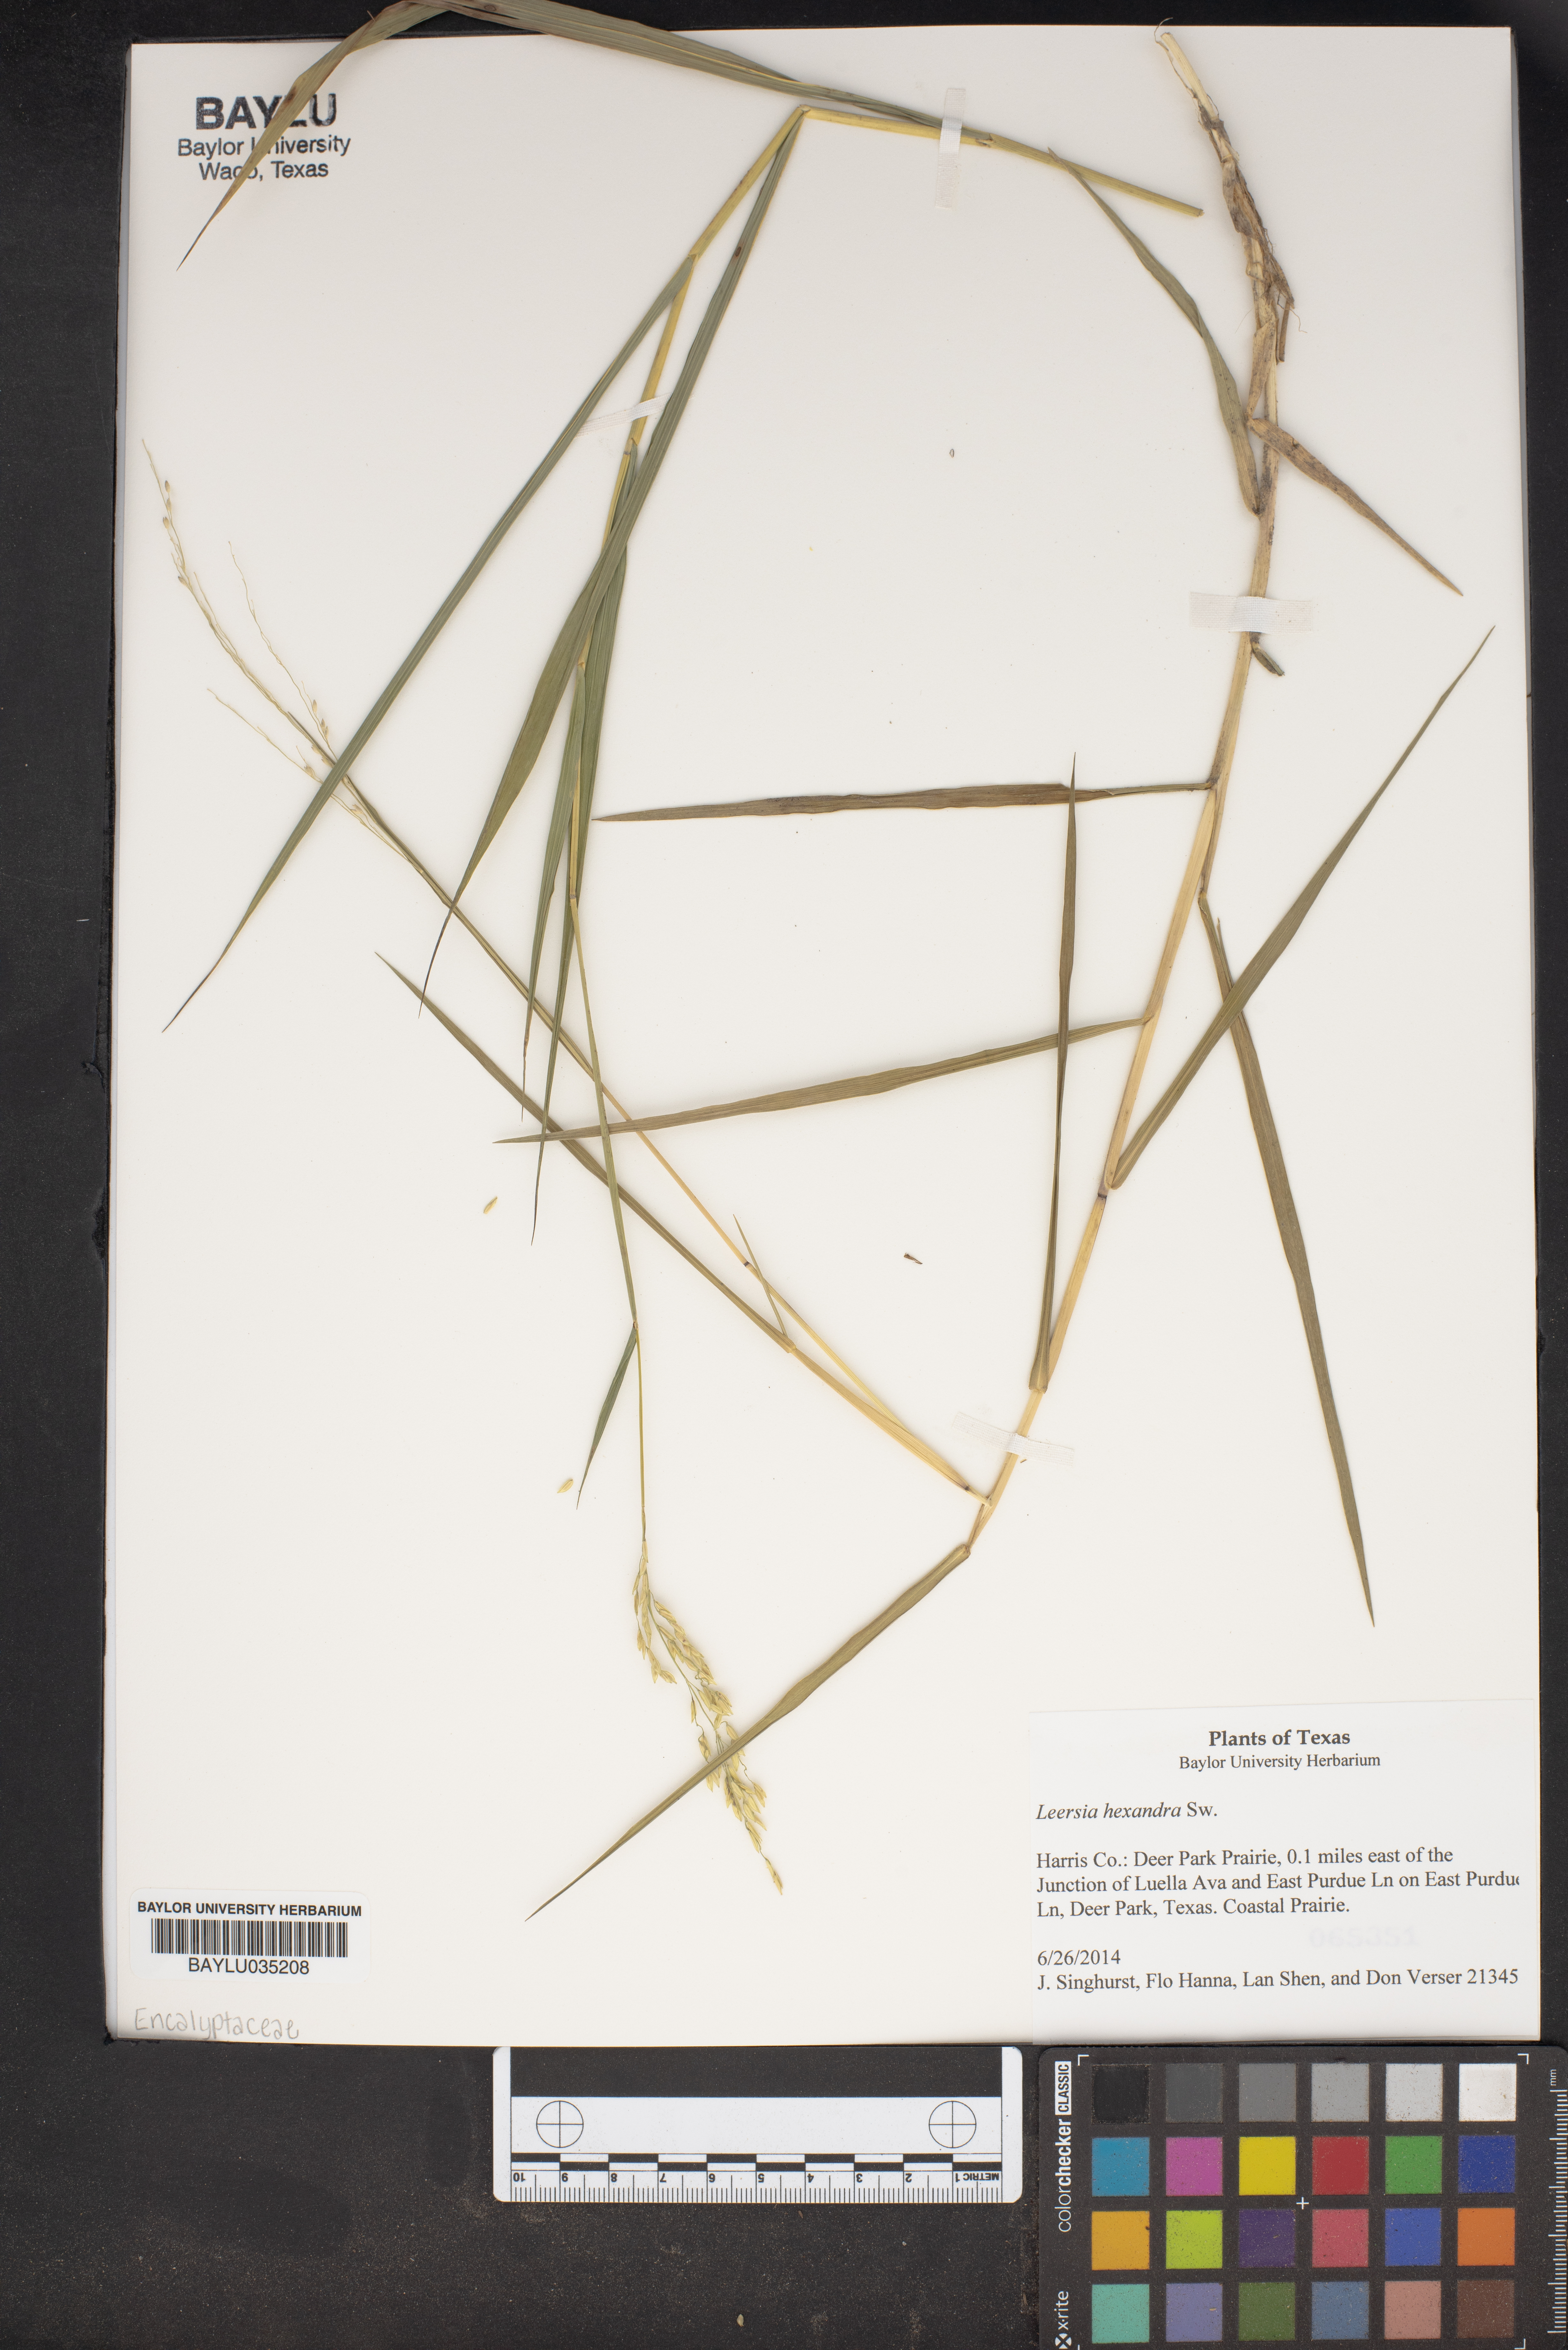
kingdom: Plantae
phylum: Tracheophyta
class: Liliopsida
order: Poales
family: Poaceae
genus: Leersia
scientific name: Leersia hexandra
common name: Southern cut grass
